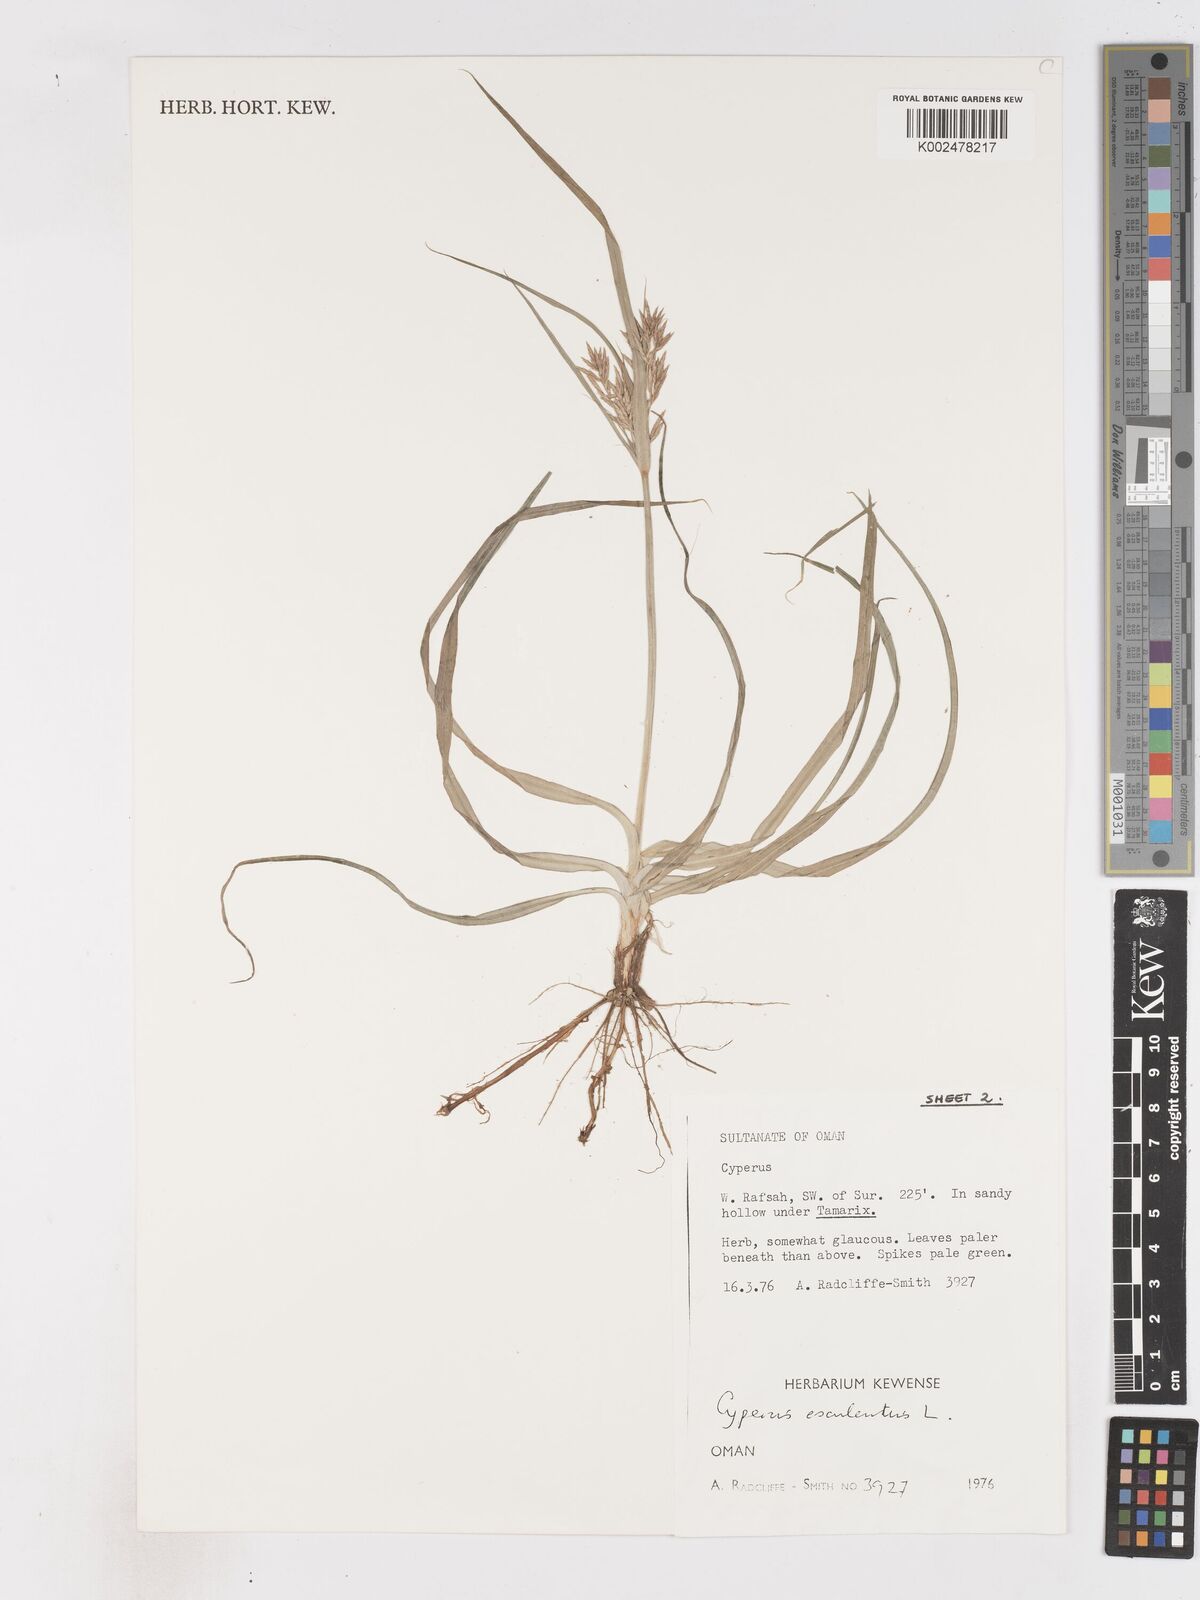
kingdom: Plantae
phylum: Tracheophyta
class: Liliopsida
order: Poales
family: Cyperaceae
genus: Cyperus
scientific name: Cyperus esculentus
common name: Yellow nutsedge
